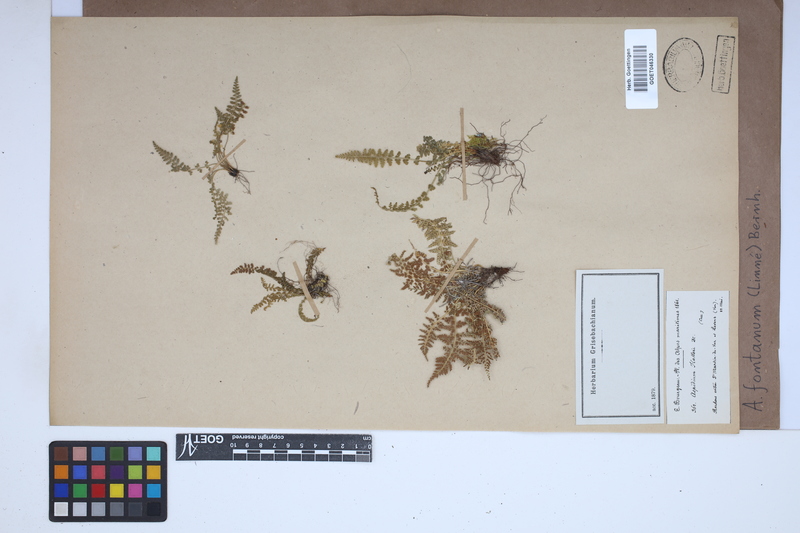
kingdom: Plantae
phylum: Tracheophyta
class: Polypodiopsida
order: Polypodiales
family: Aspleniaceae
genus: Asplenium
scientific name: Asplenium fontanum
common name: Fountain spleenwort
